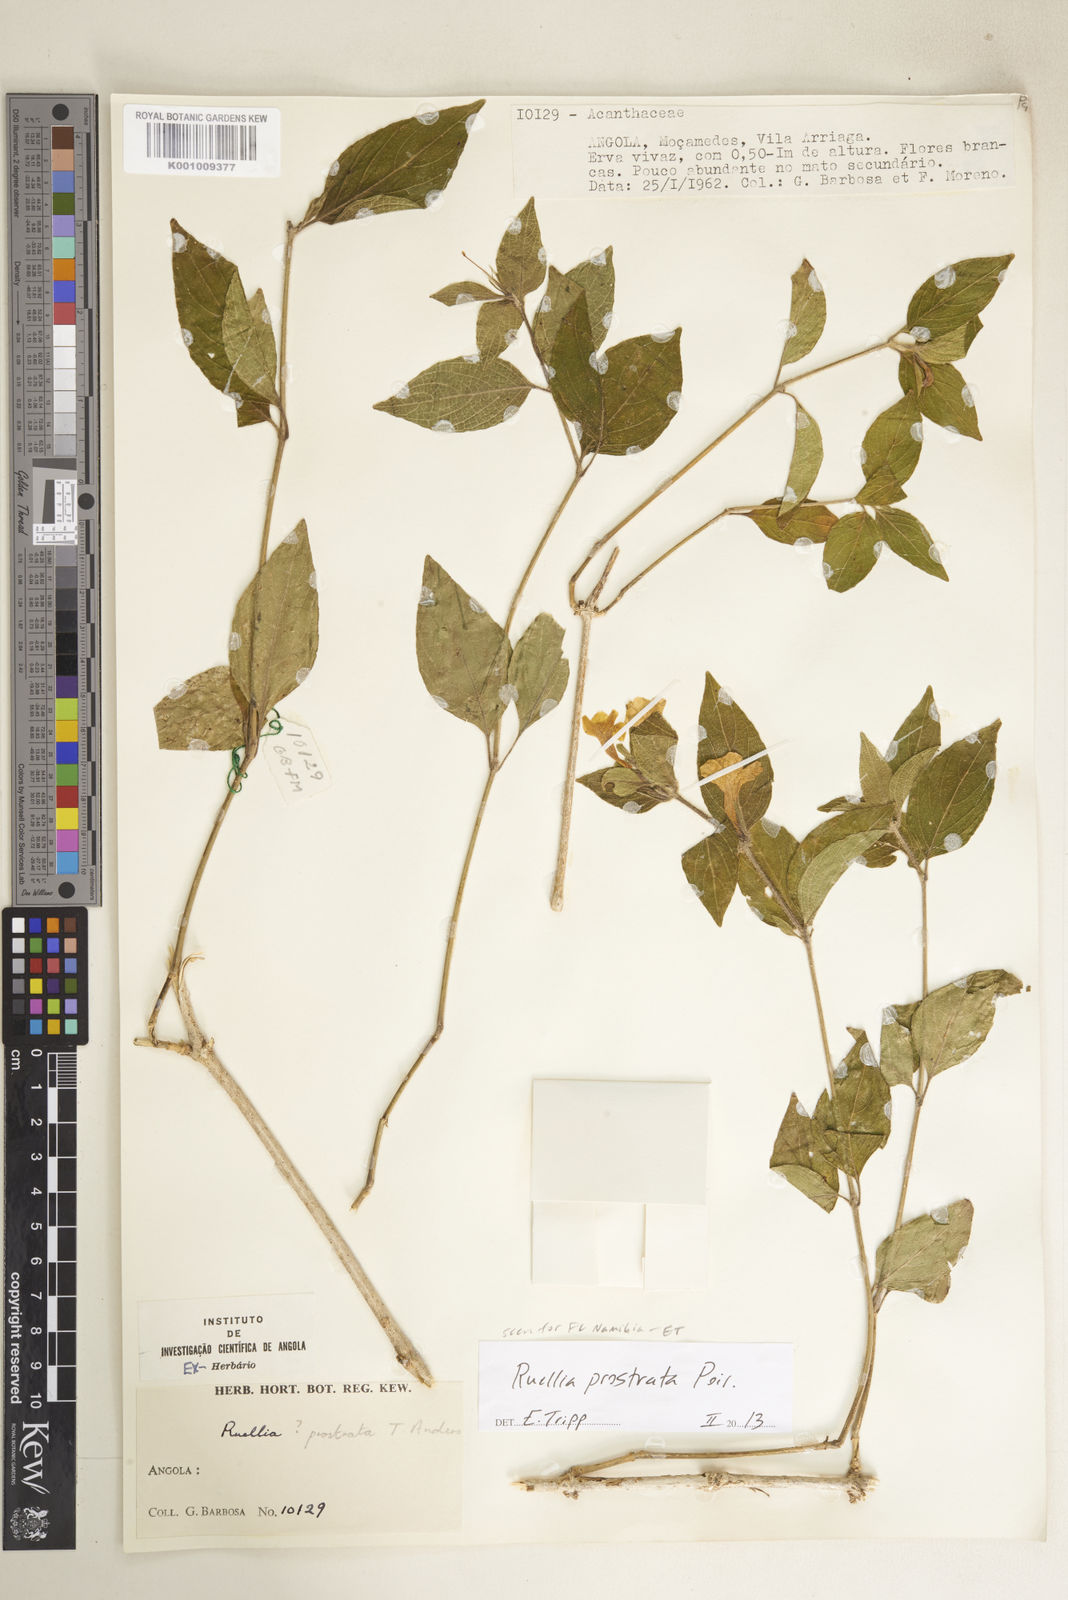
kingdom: Plantae
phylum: Tracheophyta
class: Magnoliopsida
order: Lamiales
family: Acanthaceae
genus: Ruellia
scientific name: Ruellia prostrata
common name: Prostrate wild petunia
